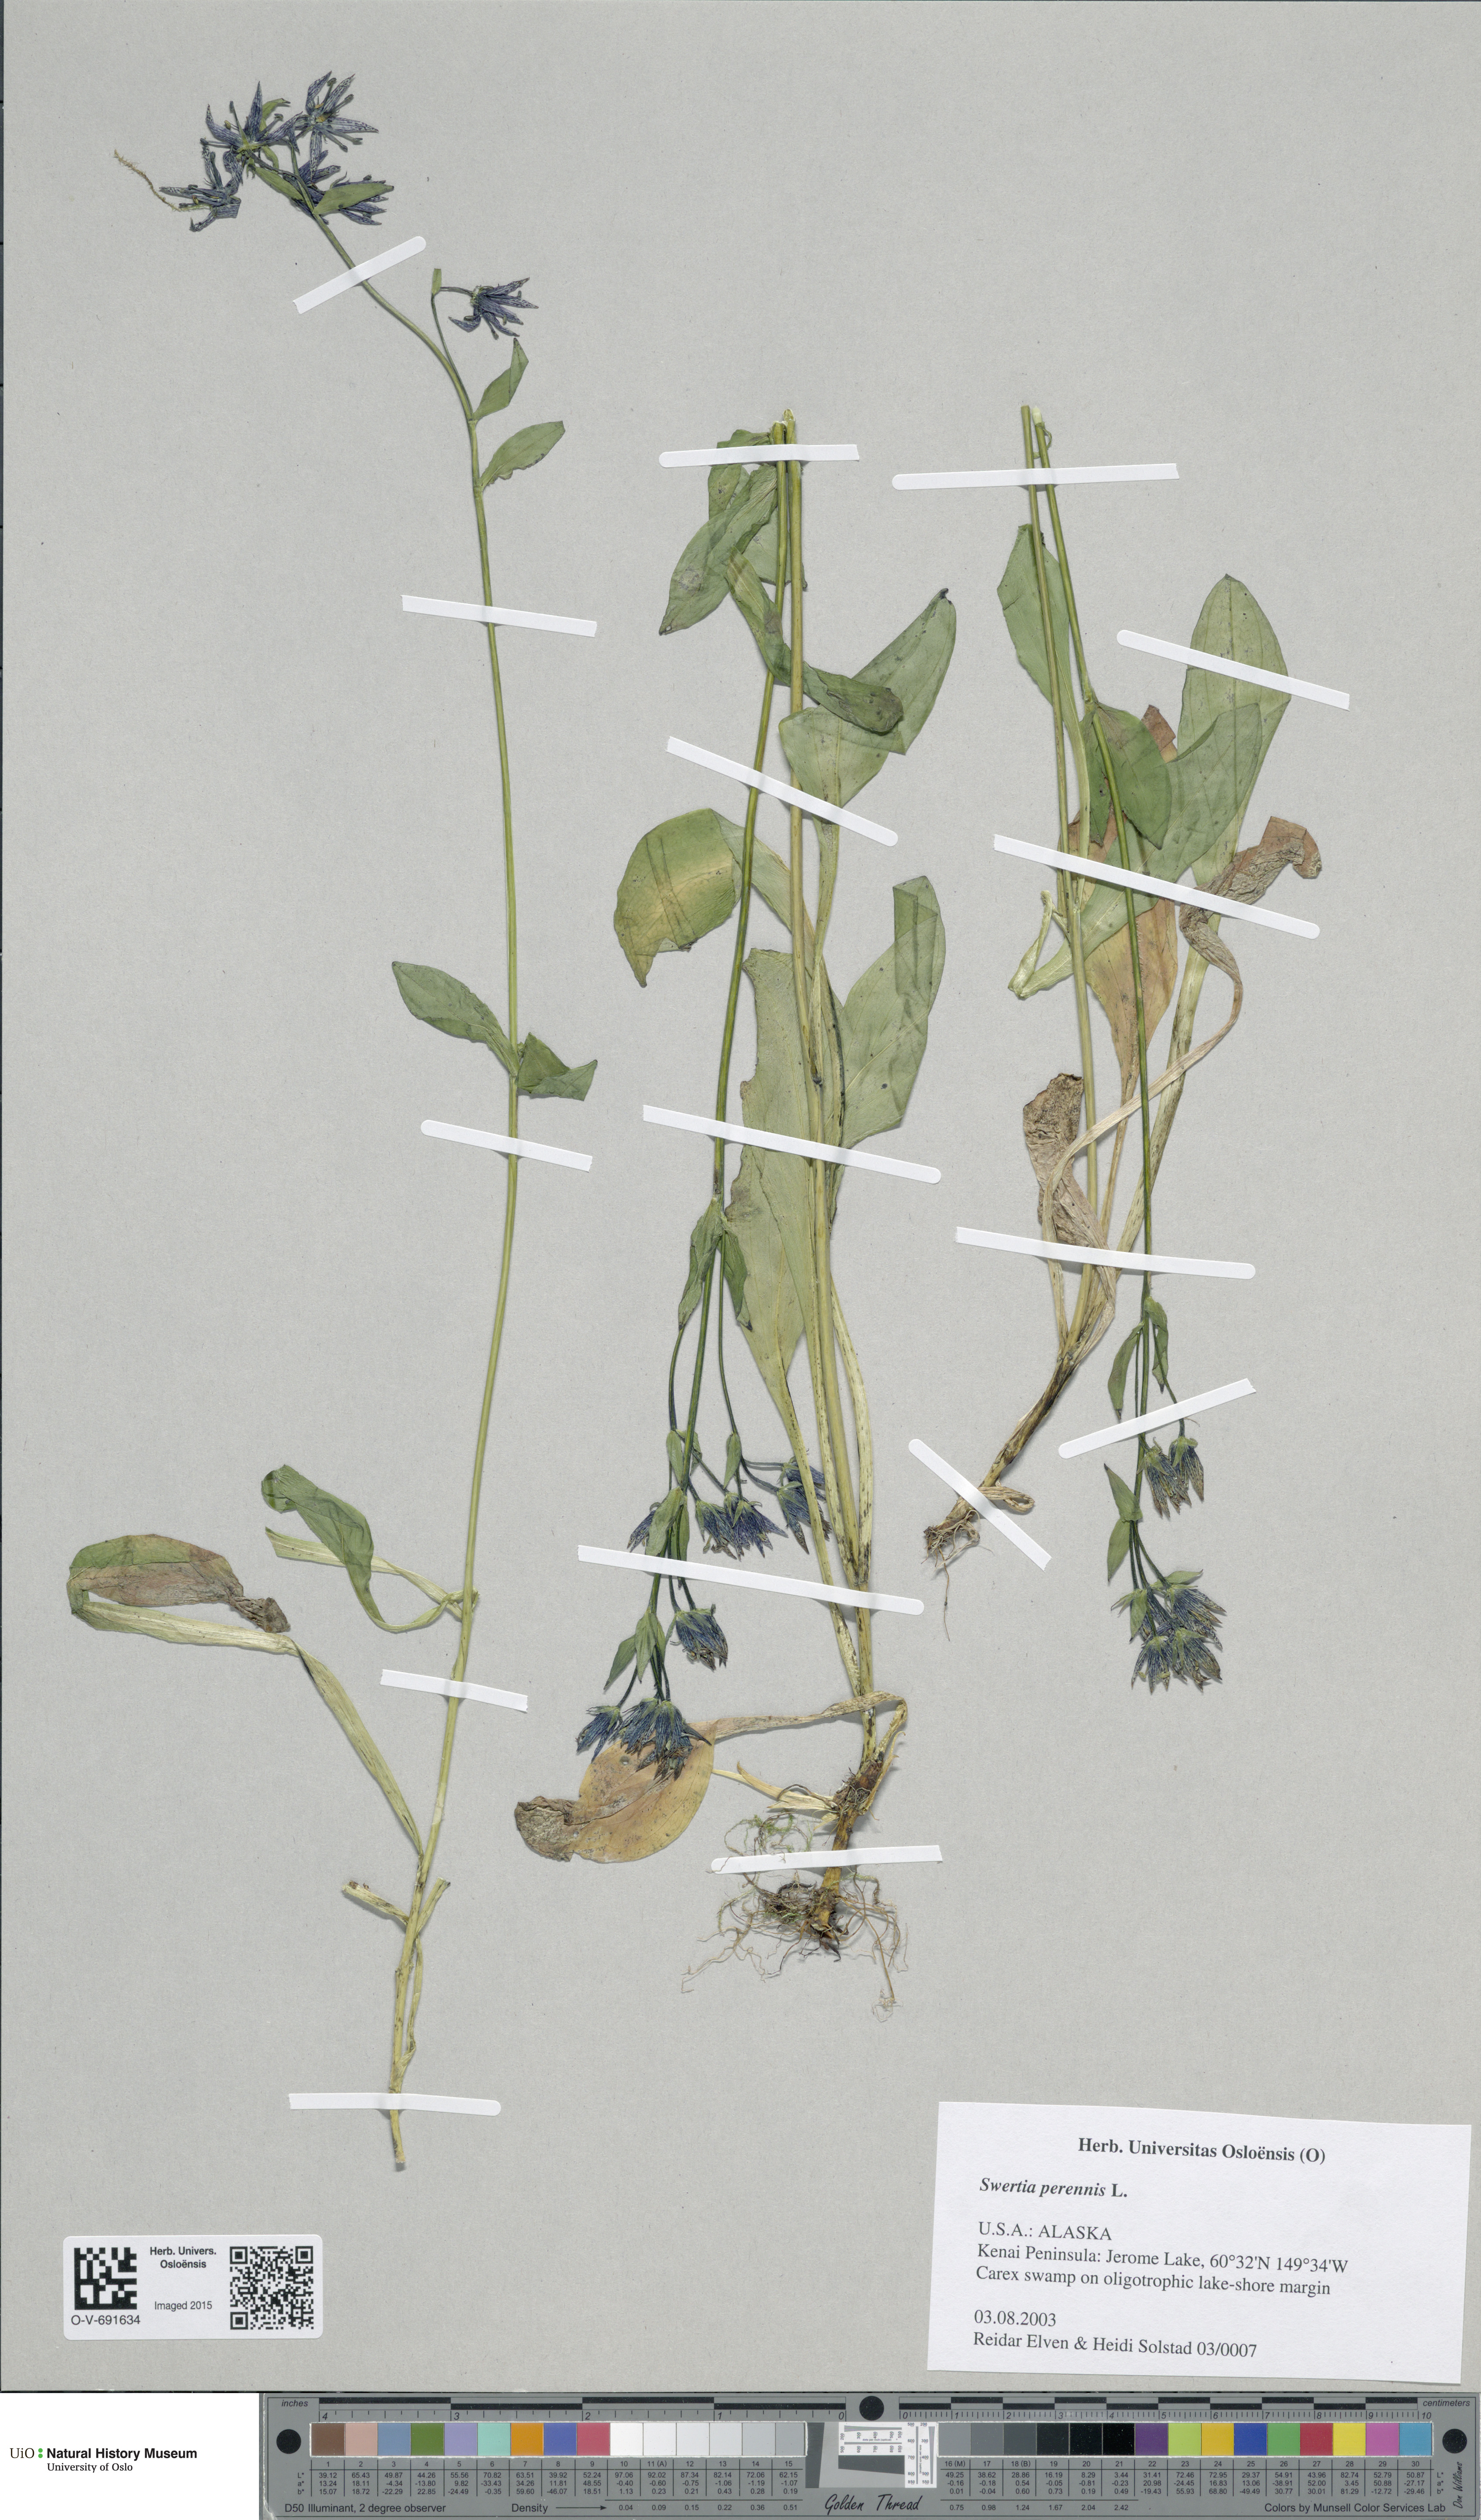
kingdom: Plantae
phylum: Tracheophyta
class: Magnoliopsida
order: Gentianales
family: Gentianaceae
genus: Swertia
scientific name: Swertia perennis
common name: Alpine bog swertia
